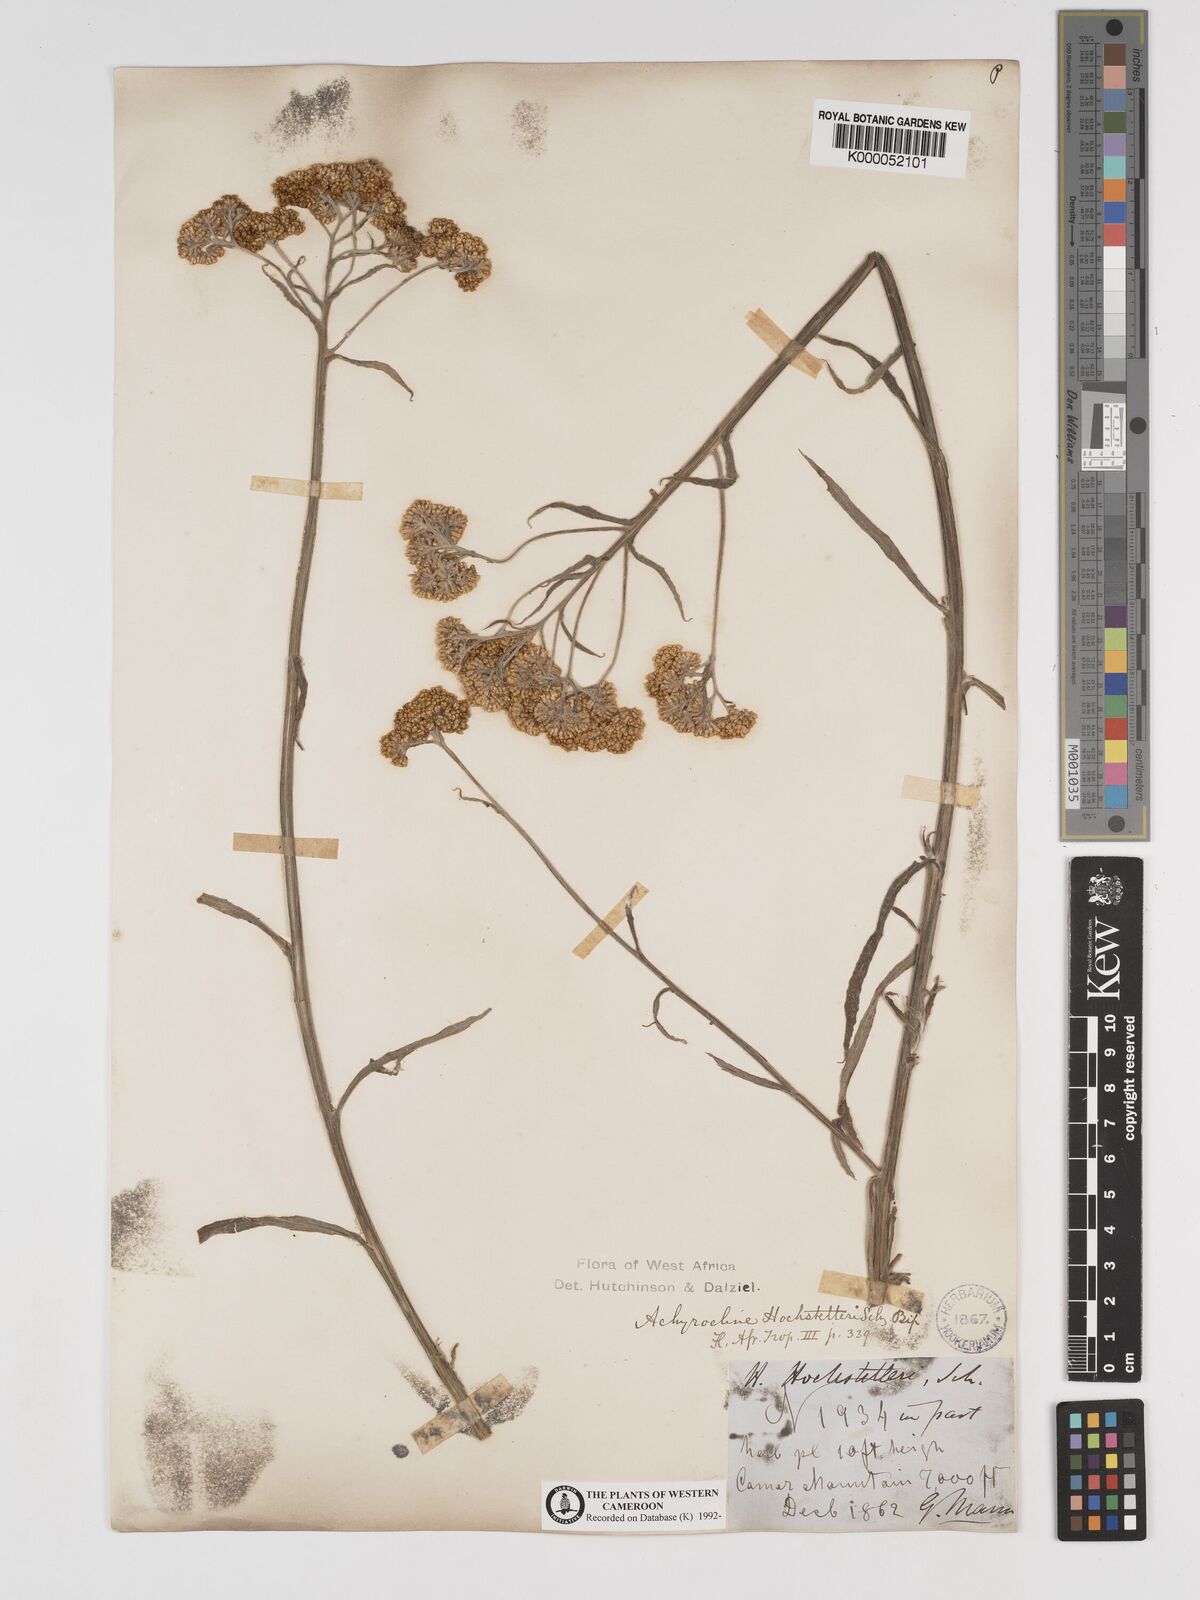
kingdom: Plantae
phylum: Tracheophyta
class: Magnoliopsida
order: Asterales
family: Asteraceae
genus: Helichrysum
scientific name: Helichrysum odoratissimum
